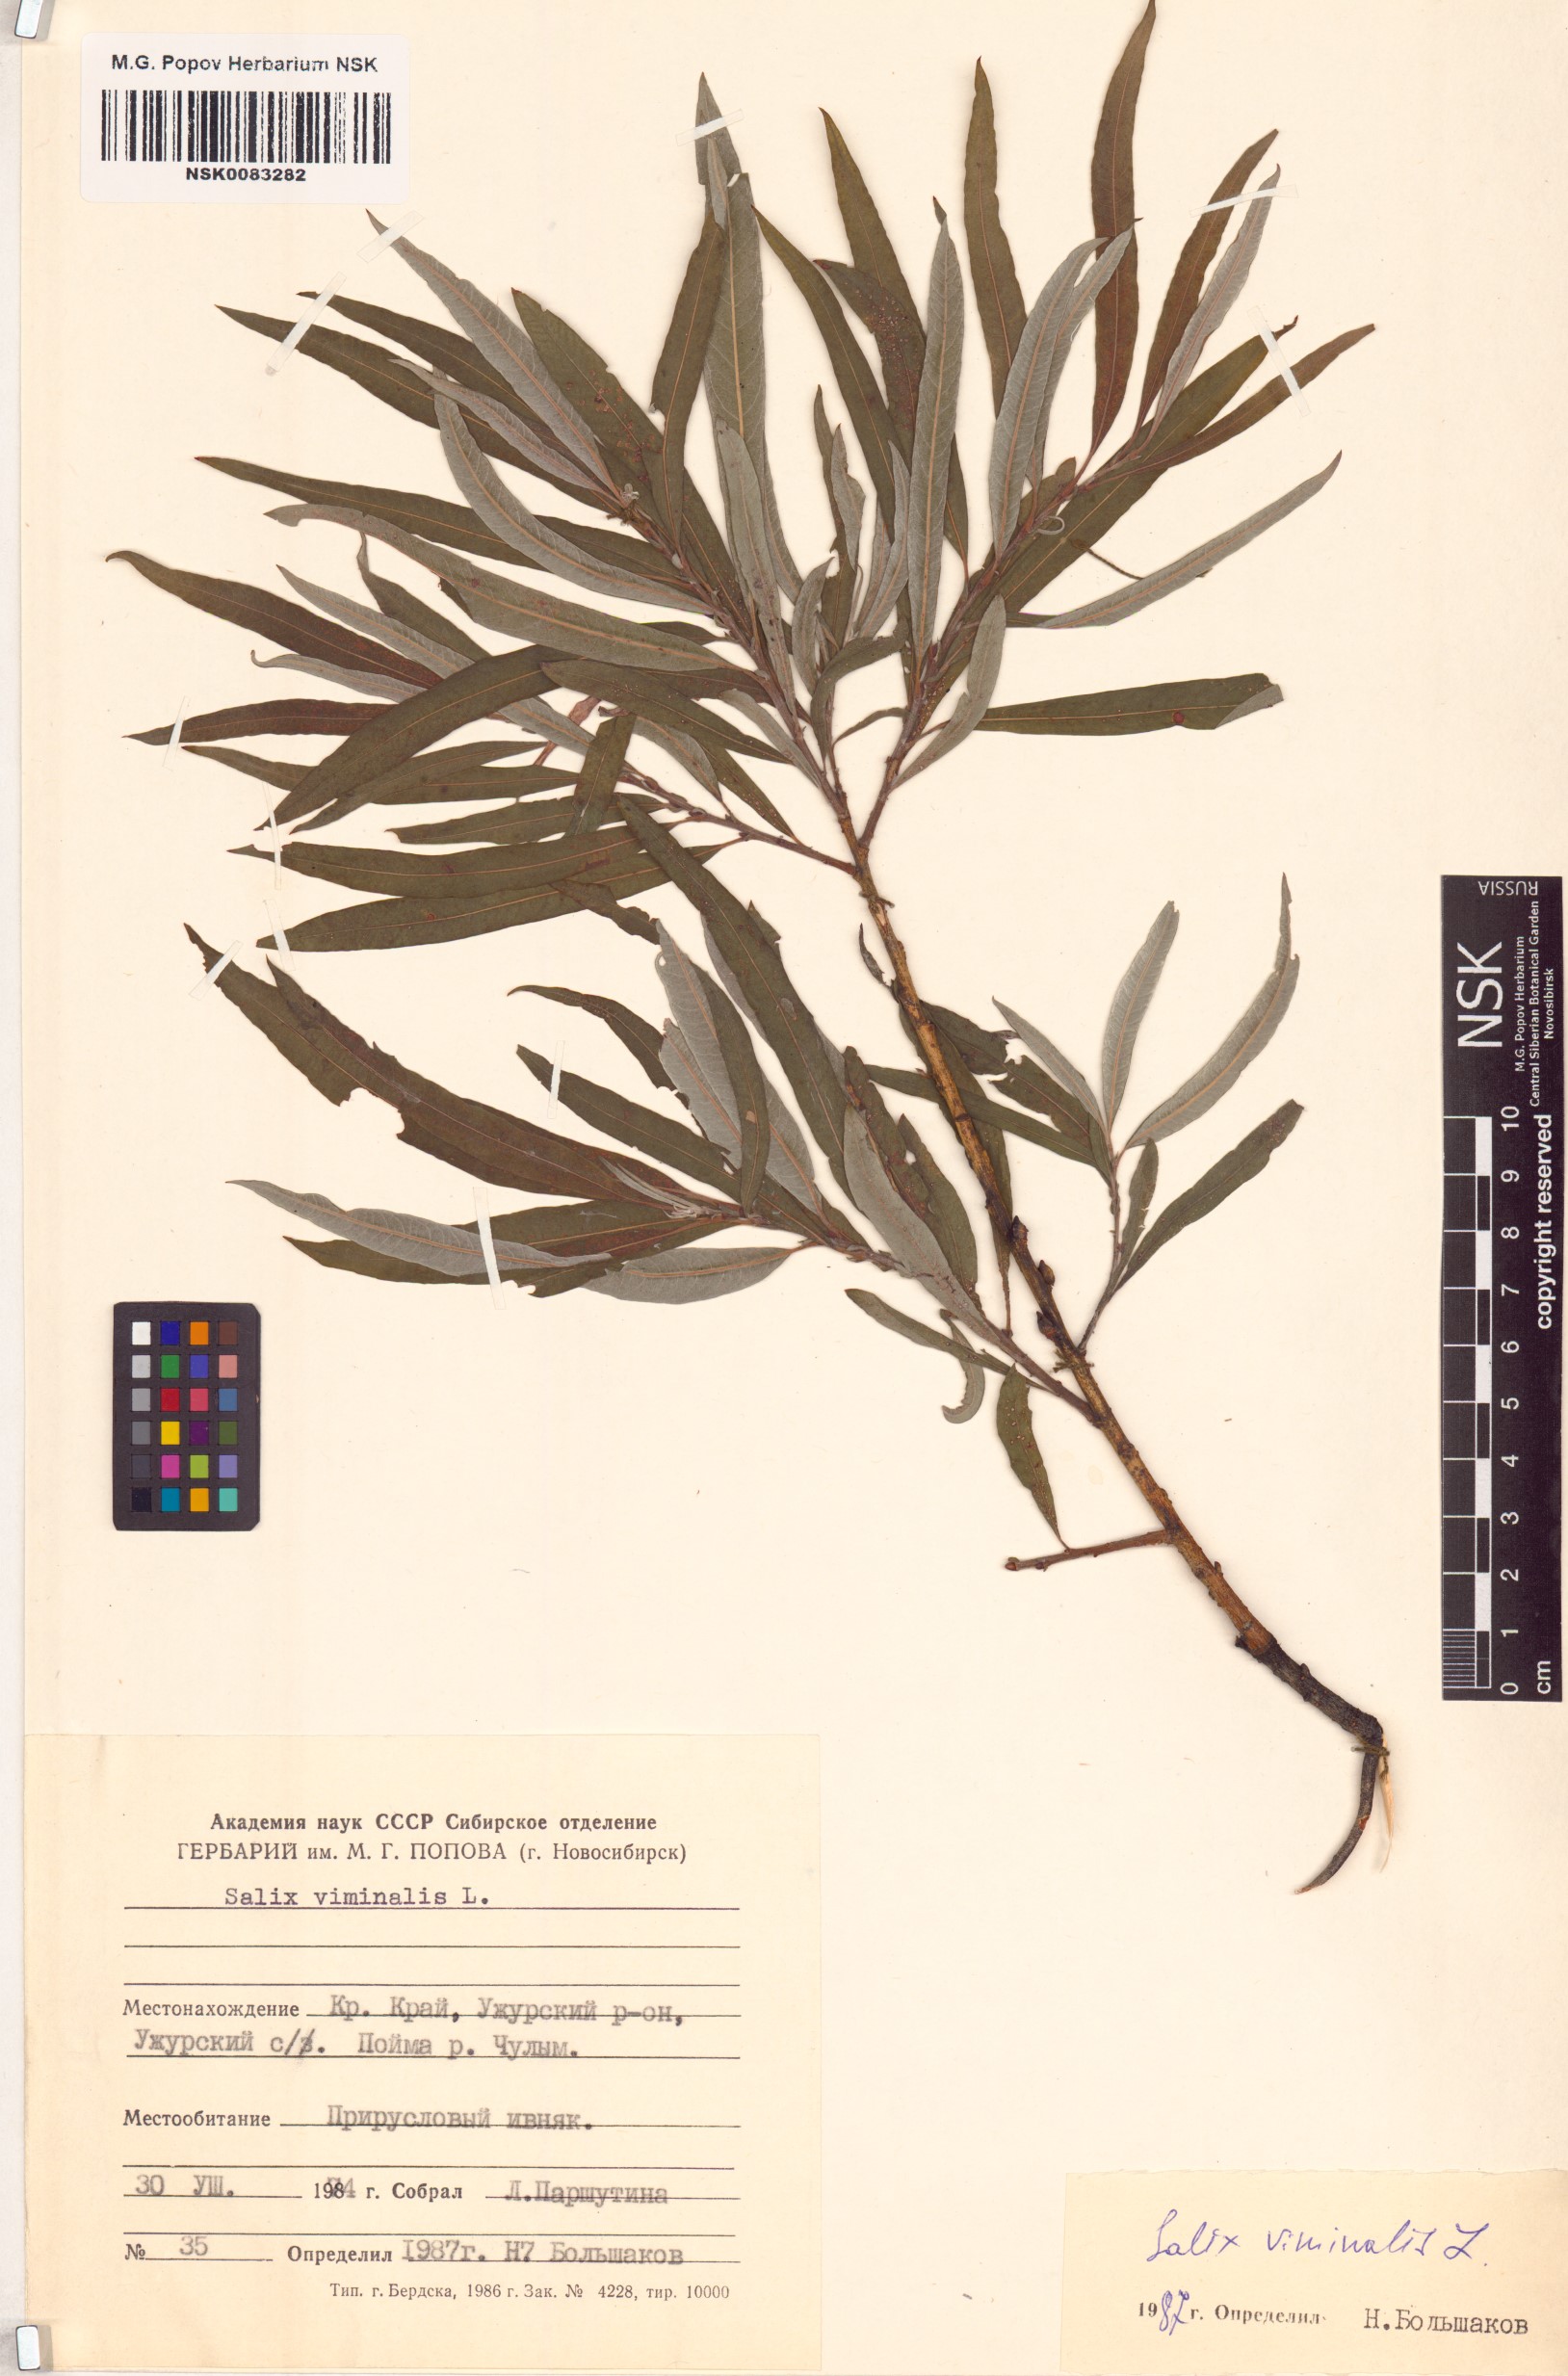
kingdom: Plantae
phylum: Tracheophyta
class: Magnoliopsida
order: Malpighiales
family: Salicaceae
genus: Salix
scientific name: Salix viminalis
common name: Osier
